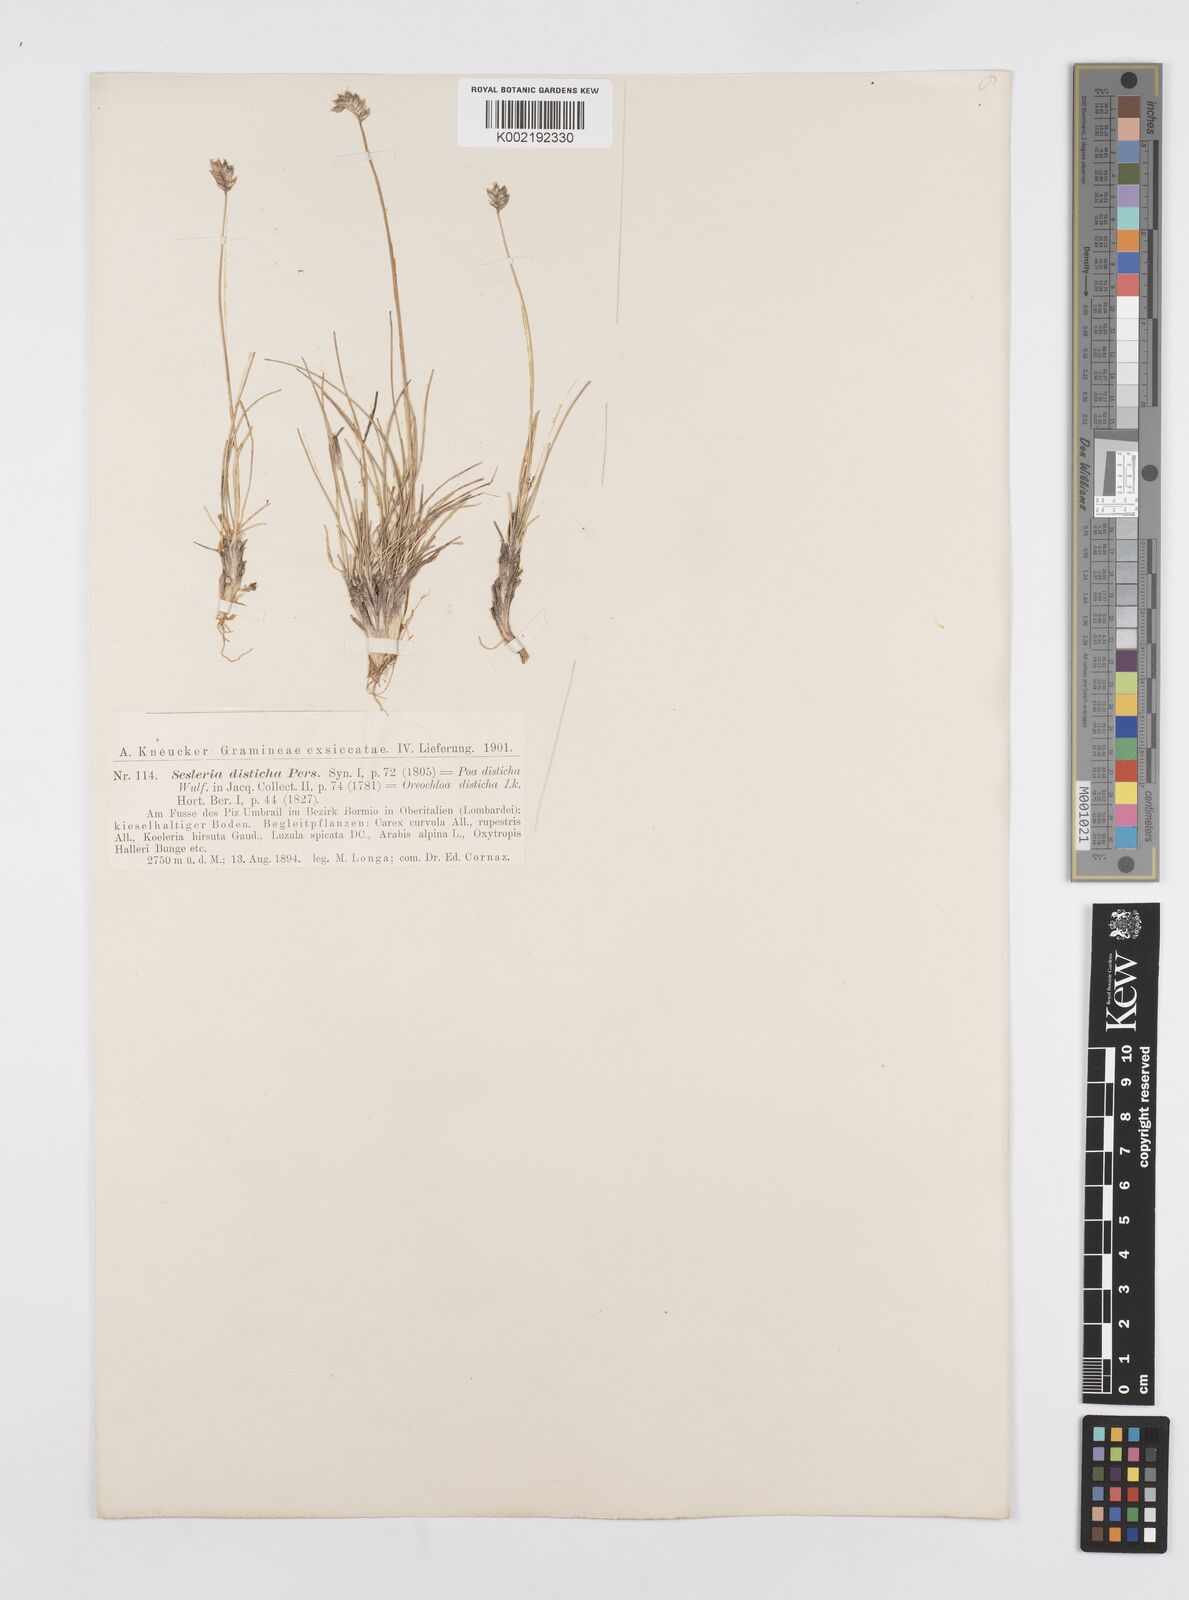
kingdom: Plantae
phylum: Tracheophyta
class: Liliopsida
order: Poales
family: Poaceae
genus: Oreochloa
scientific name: Oreochloa disticha
